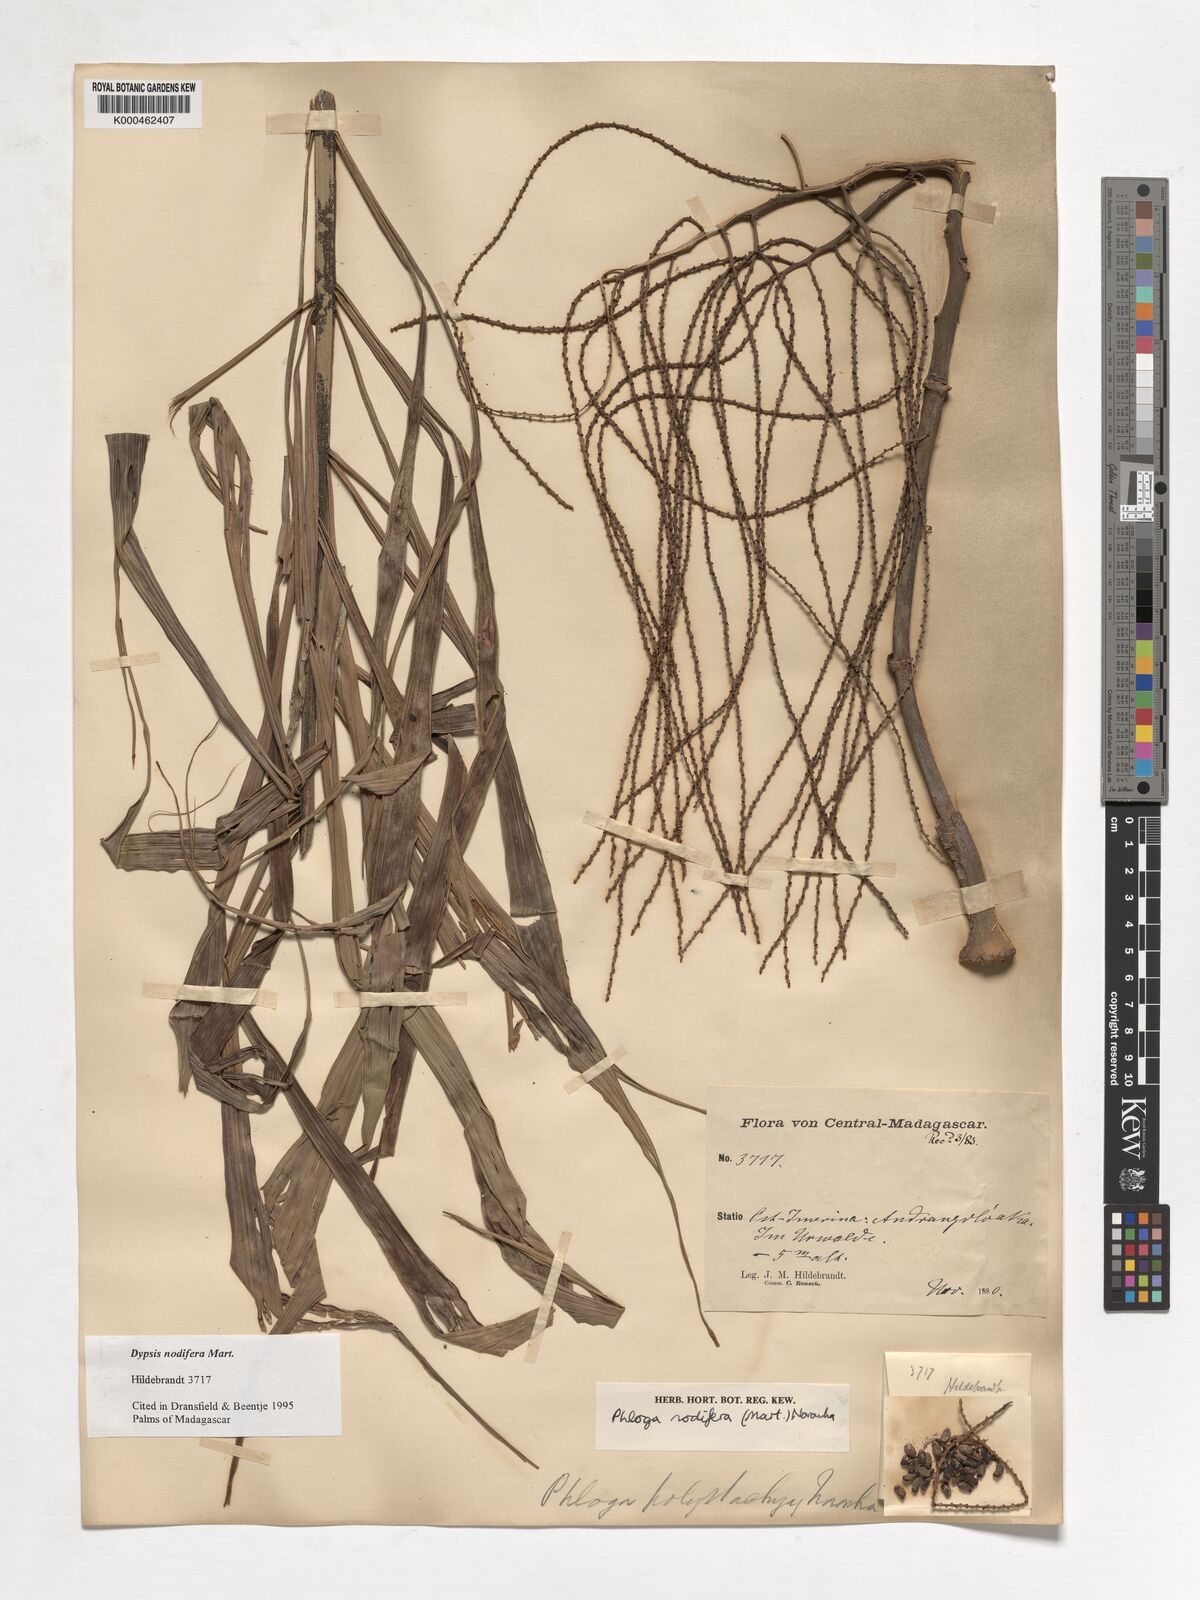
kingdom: Plantae
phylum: Tracheophyta
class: Liliopsida
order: Arecales
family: Arecaceae
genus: Dypsis
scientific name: Dypsis nodifera
